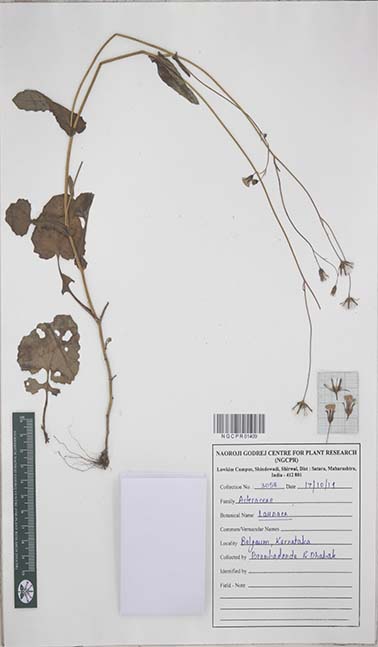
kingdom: Plantae
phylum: Tracheophyta
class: Magnoliopsida
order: Asterales
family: Asteraceae
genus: Launaea
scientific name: Launaea
